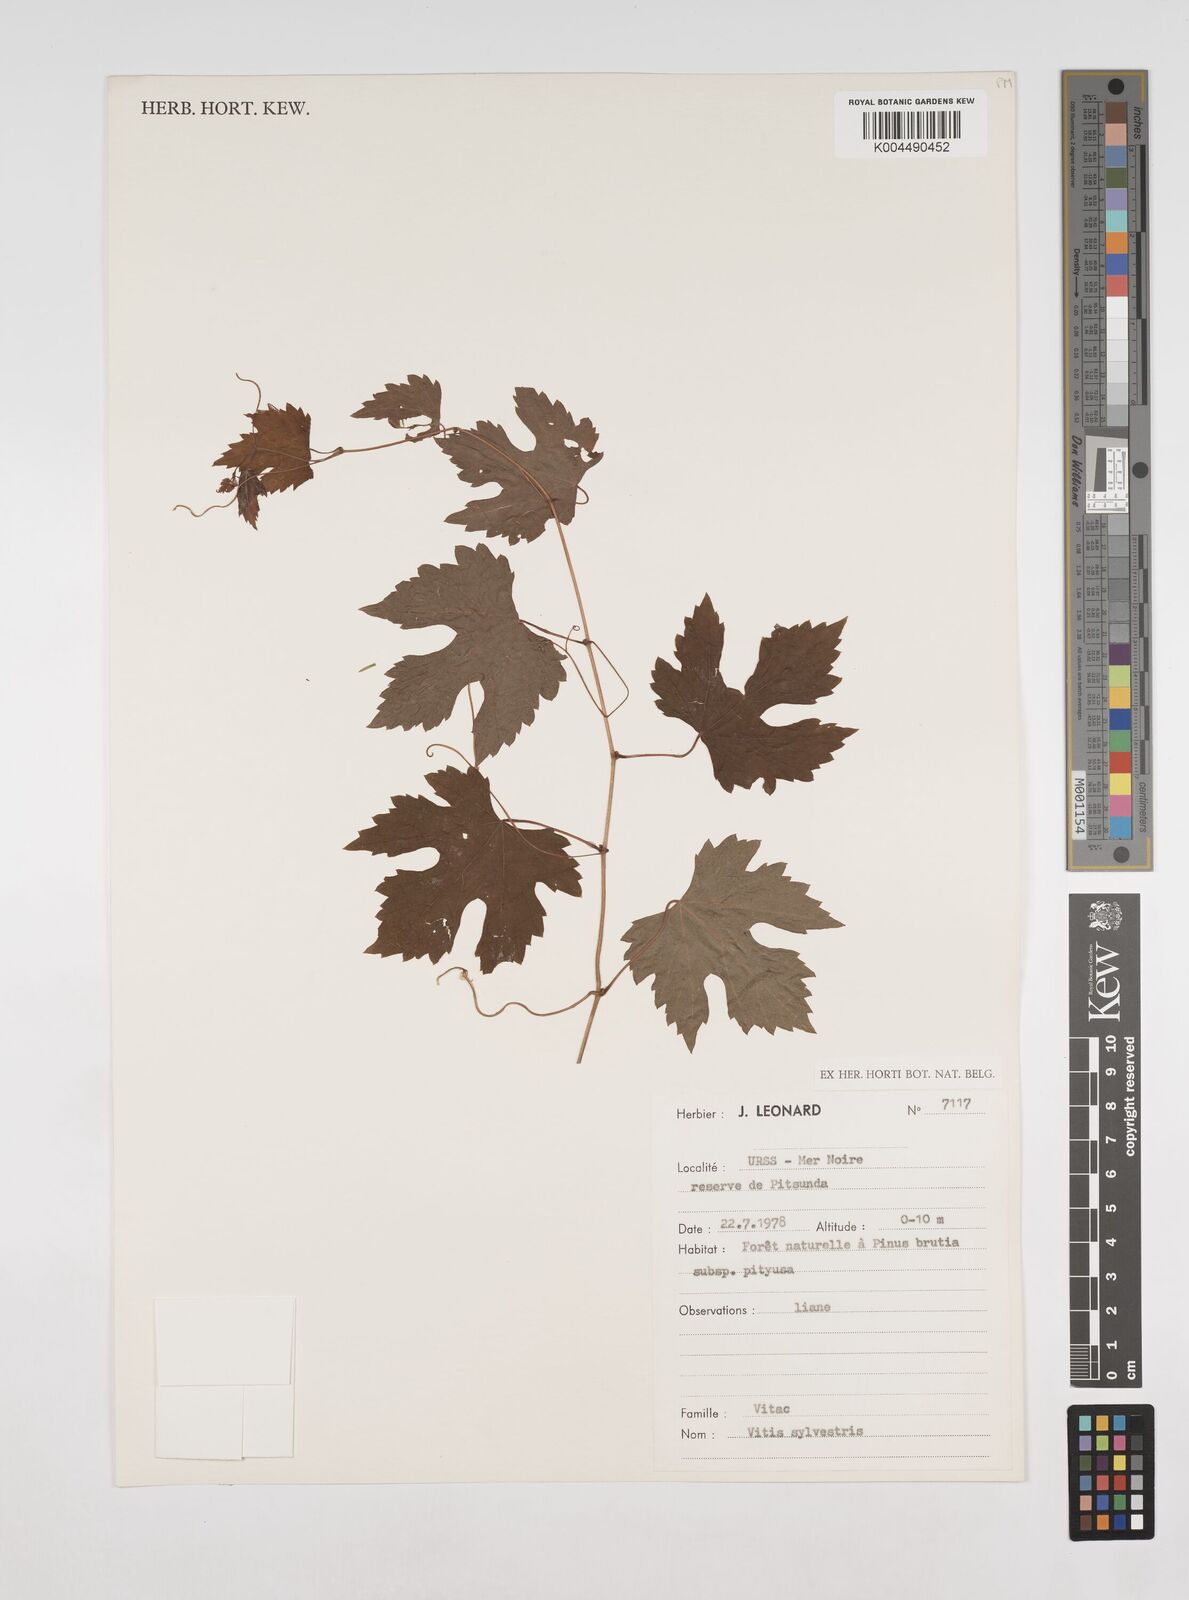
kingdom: Plantae
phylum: Tracheophyta
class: Magnoliopsida
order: Vitales
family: Vitaceae
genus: Vitis
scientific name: Vitis
